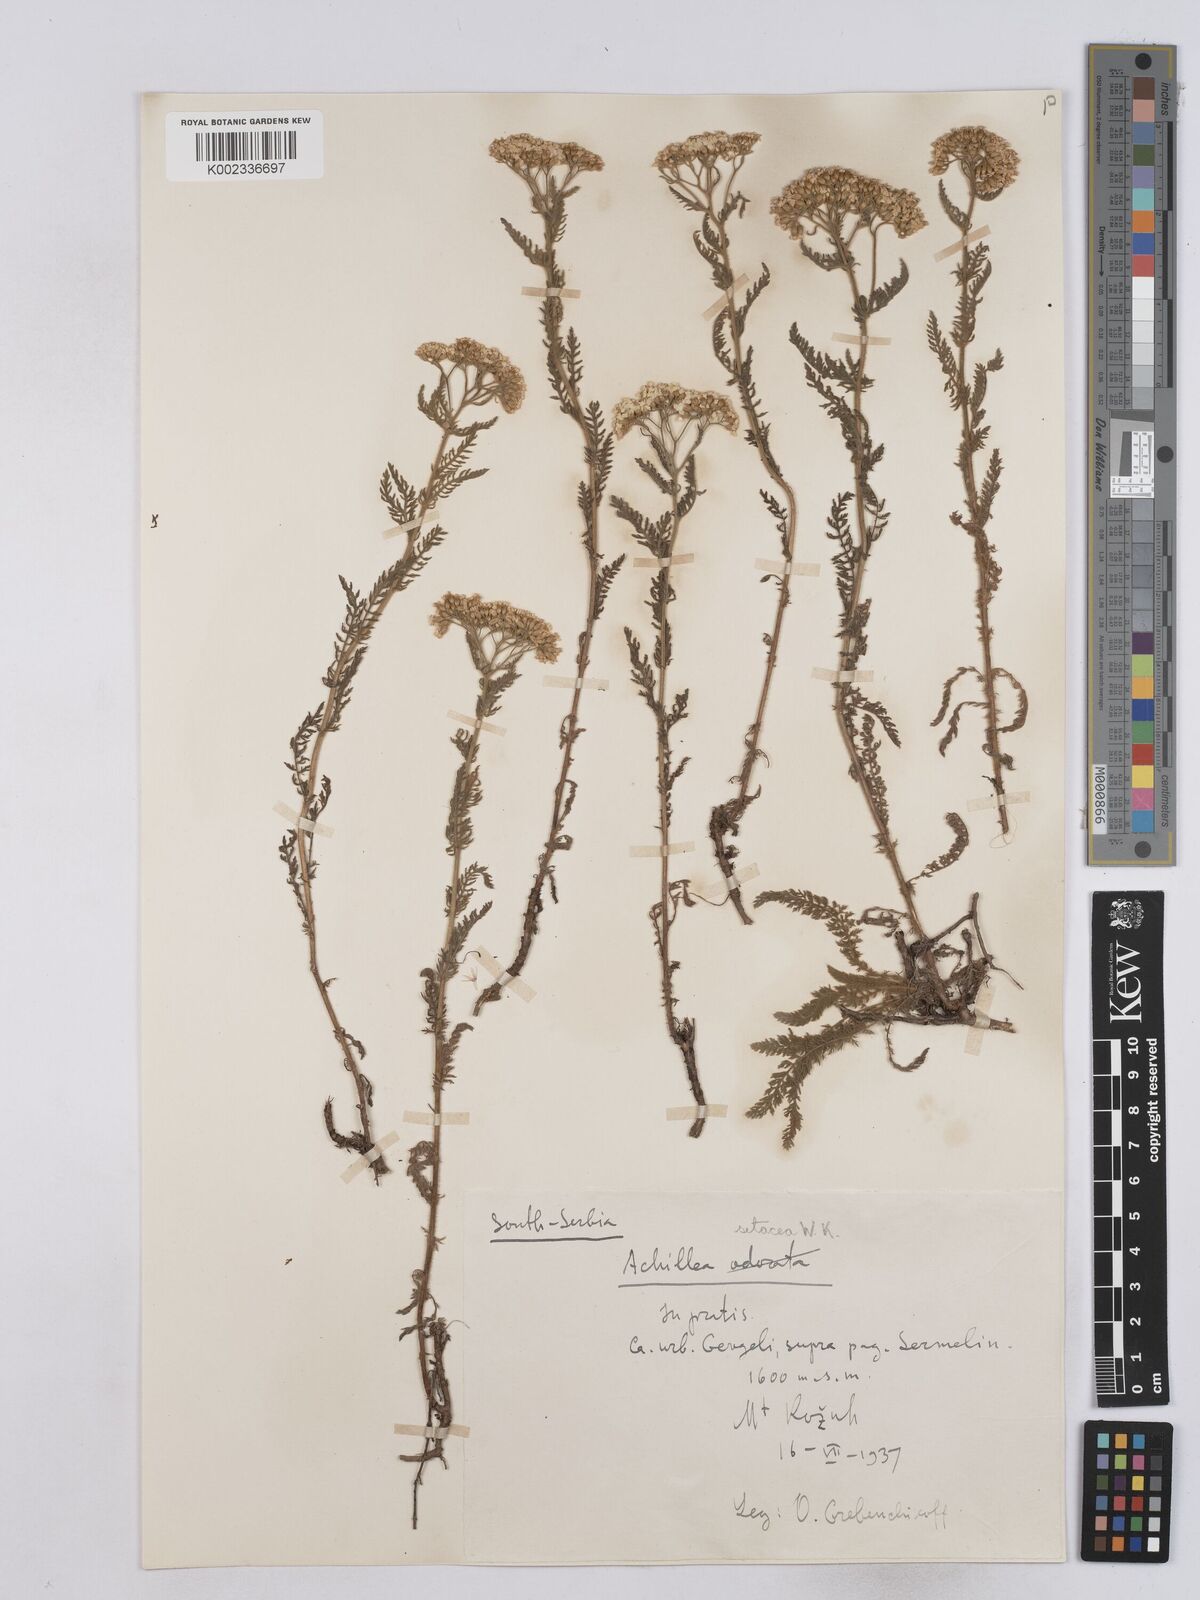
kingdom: Plantae
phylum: Tracheophyta
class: Magnoliopsida
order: Asterales
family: Asteraceae
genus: Achillea
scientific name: Achillea setacea
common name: Bristly yarrow
